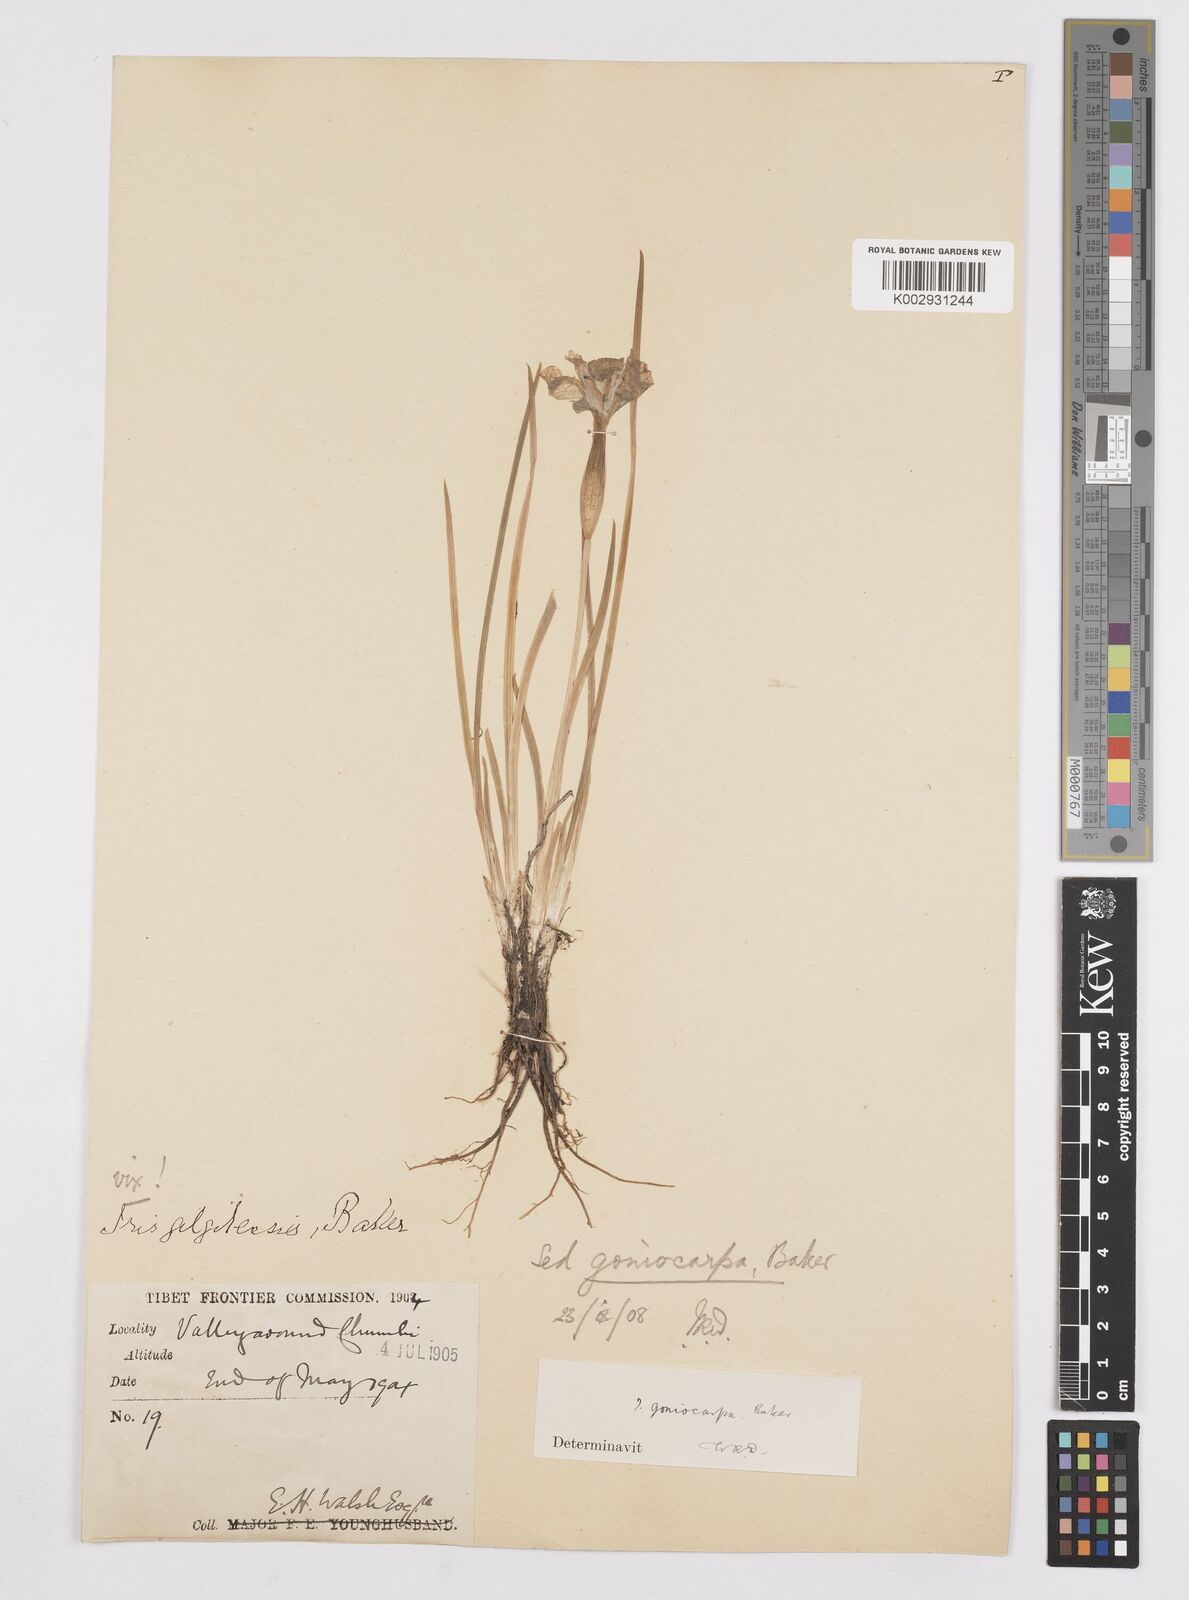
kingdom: Plantae
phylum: Tracheophyta
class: Liliopsida
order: Asparagales
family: Iridaceae
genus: Iris
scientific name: Iris goniocarpa
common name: Angular-fruit iris
